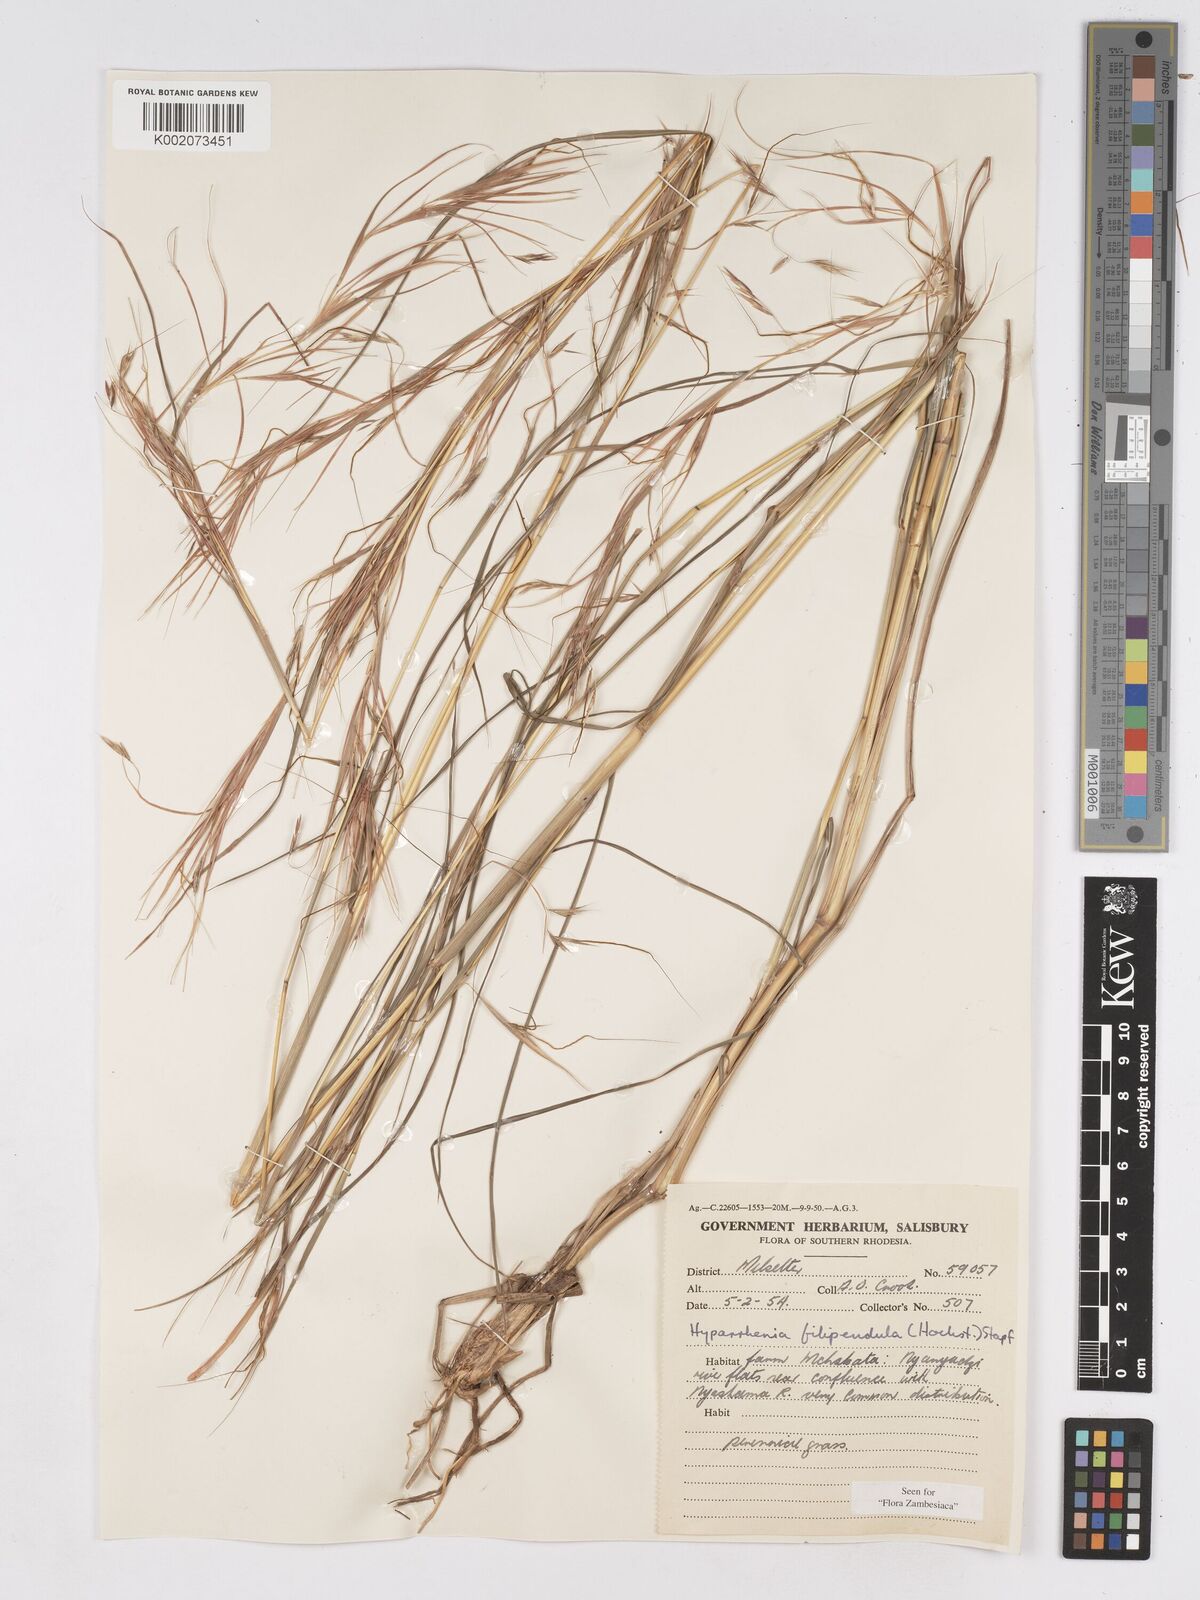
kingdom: Plantae
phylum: Tracheophyta
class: Liliopsida
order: Poales
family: Poaceae
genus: Hyparrhenia
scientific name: Hyparrhenia filipendula
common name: Tambookie grass
